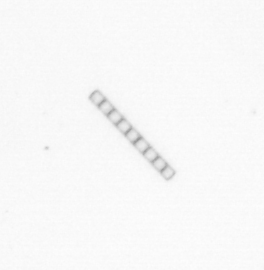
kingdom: Chromista
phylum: Ochrophyta
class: Bacillariophyceae
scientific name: Bacillariophyceae
